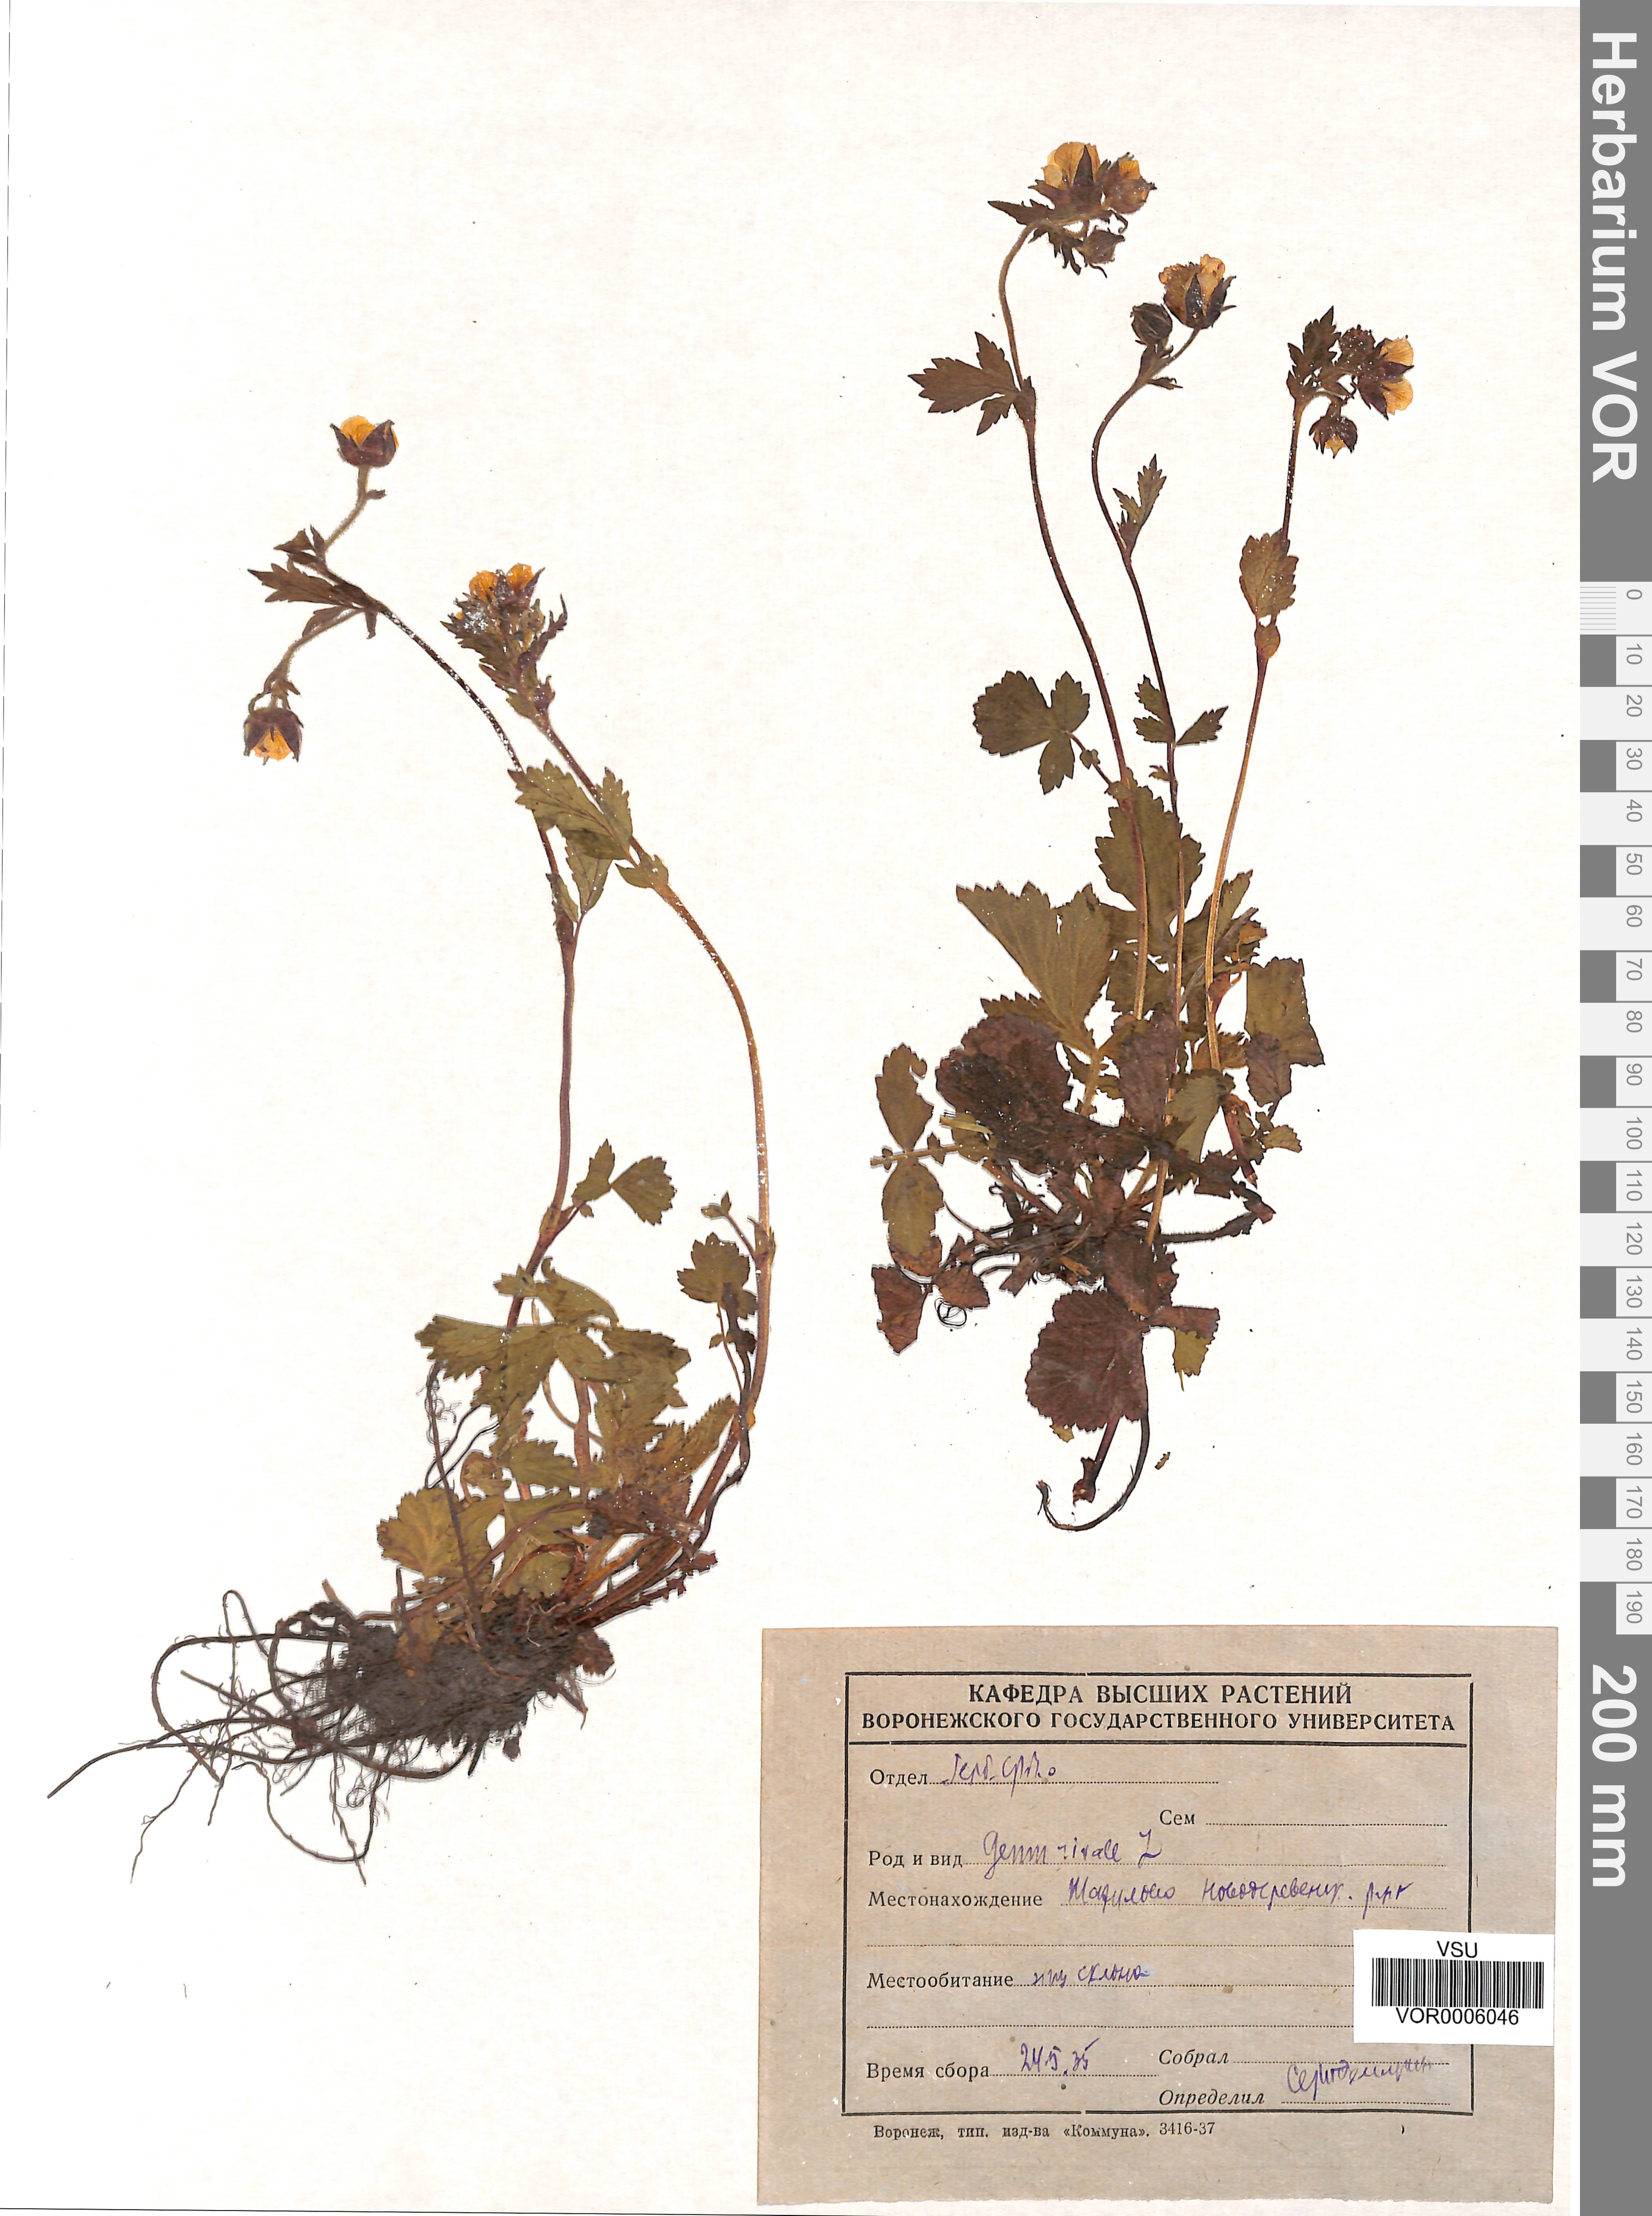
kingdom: Plantae
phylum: Tracheophyta
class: Magnoliopsida
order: Rosales
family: Rosaceae
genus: Geum
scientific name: Geum rivale
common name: Water avens
